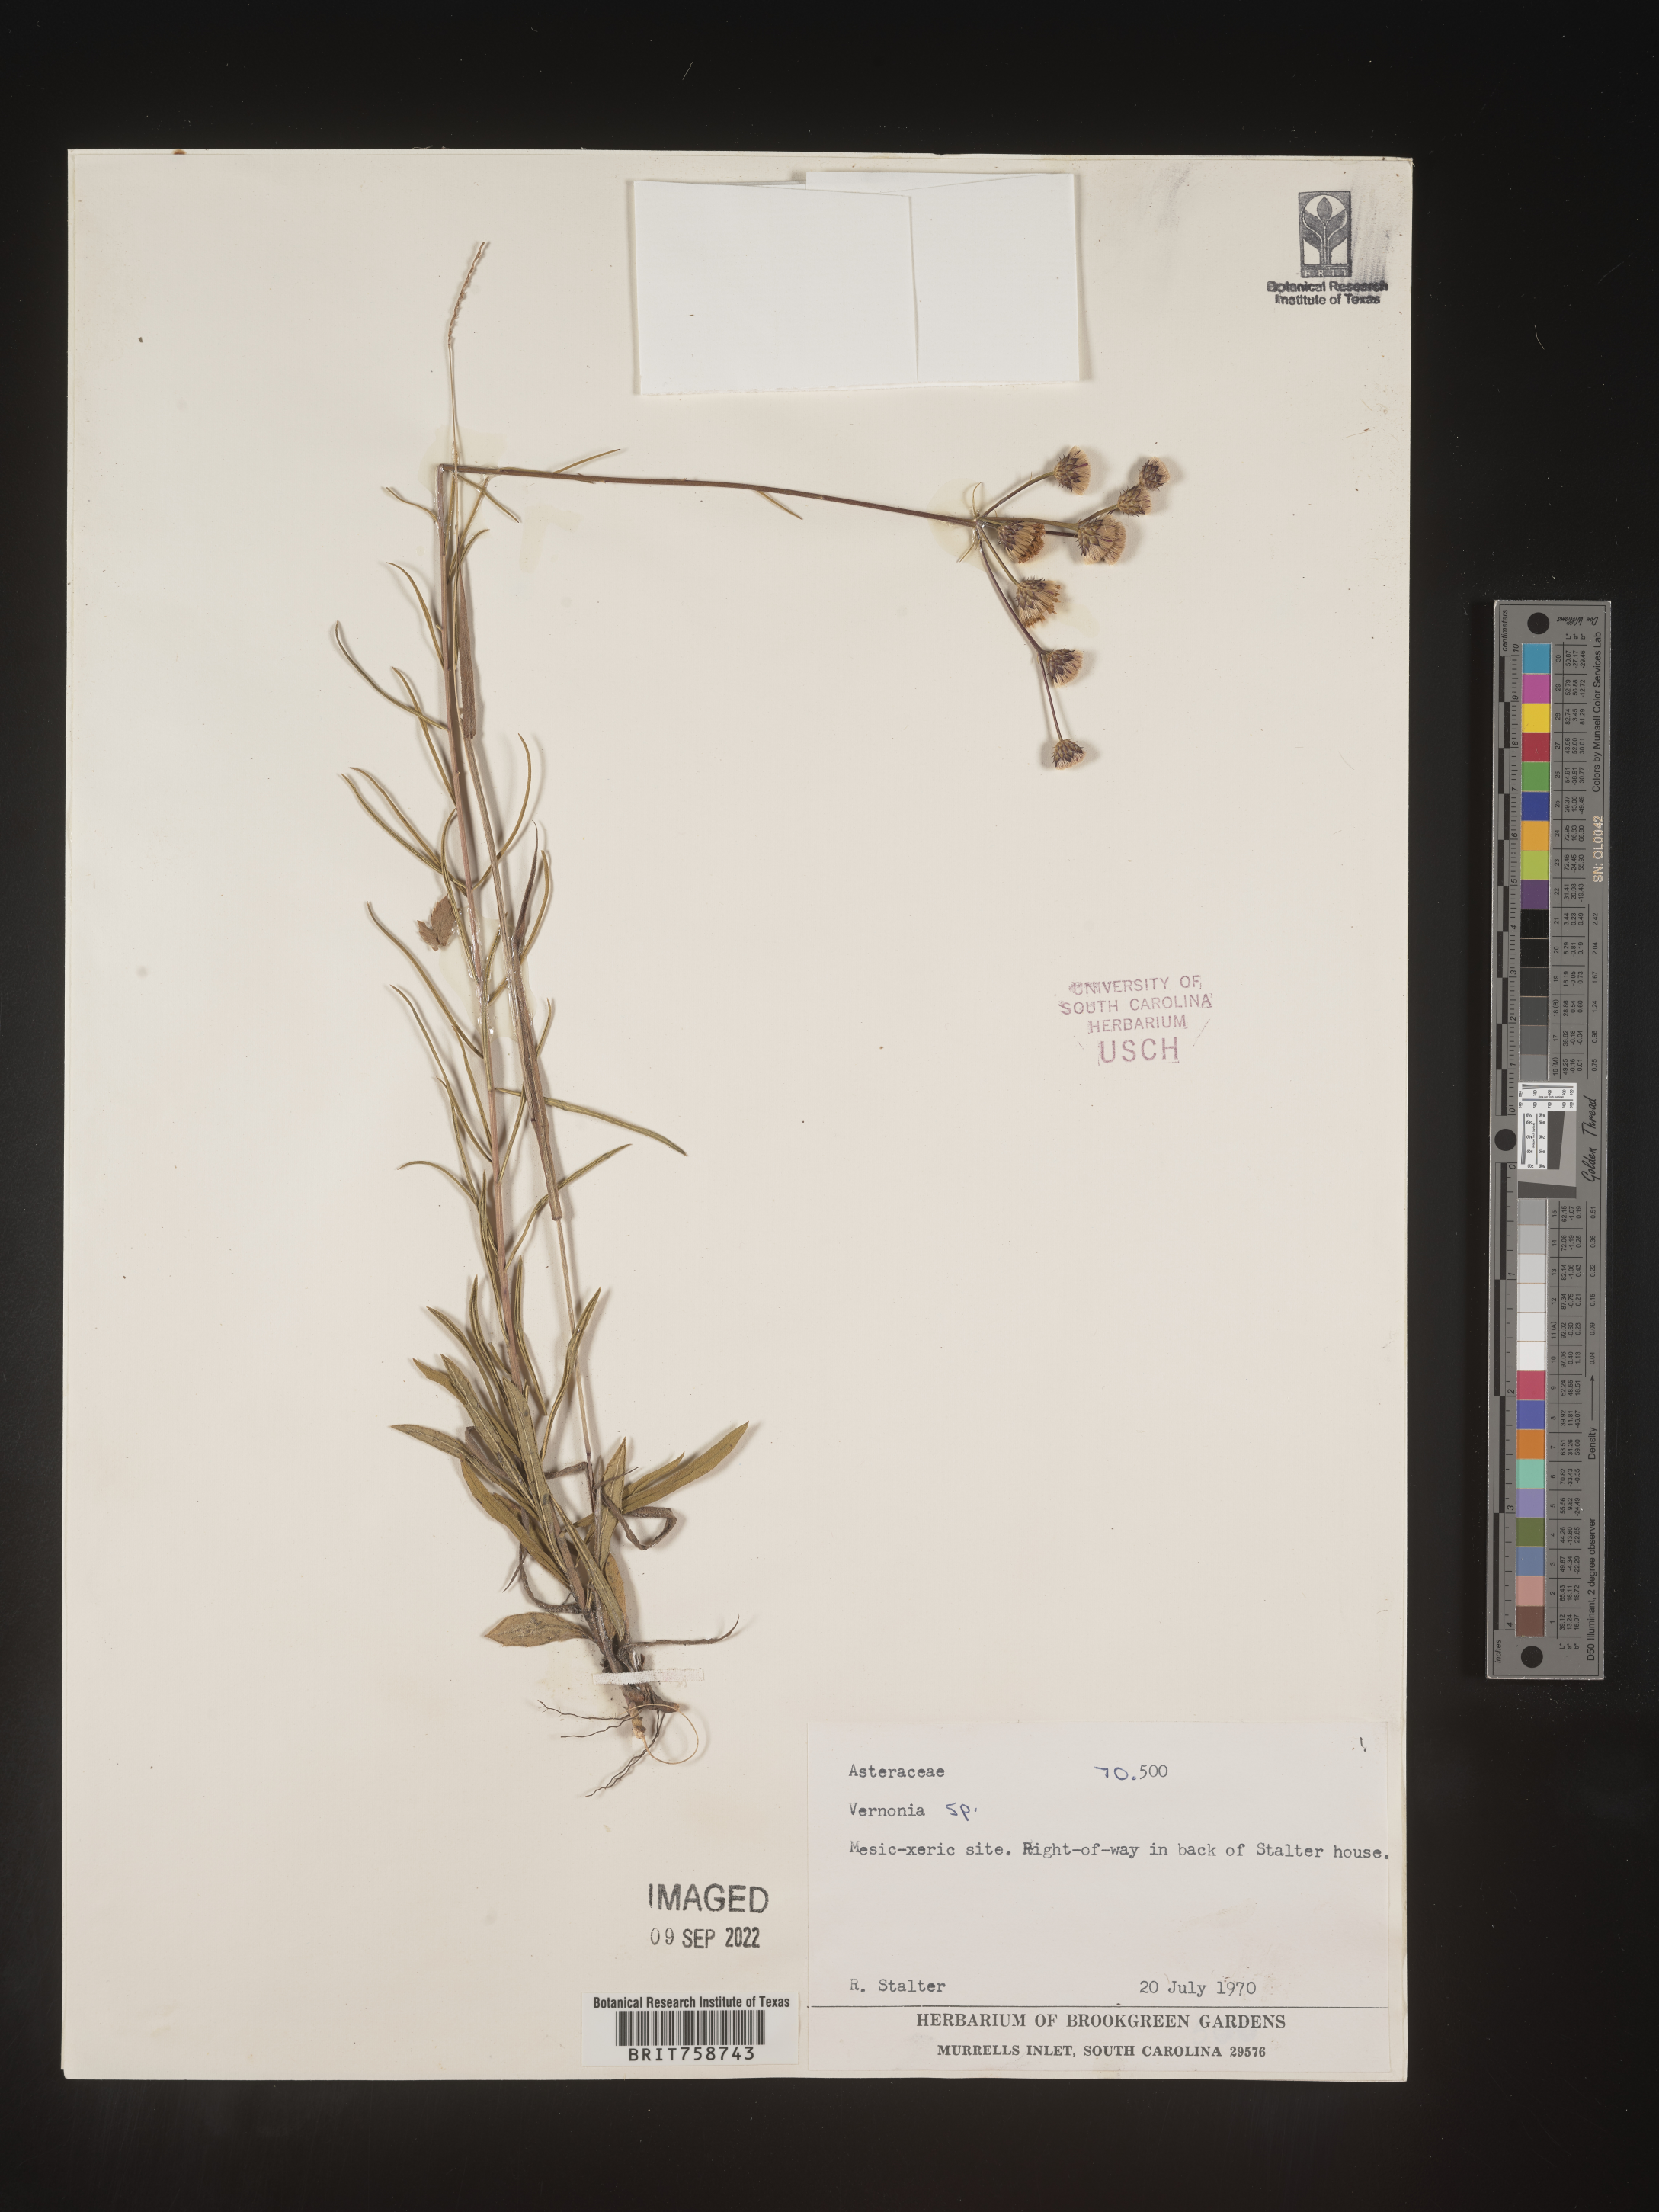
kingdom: Plantae
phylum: Tracheophyta
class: Magnoliopsida
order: Asterales
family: Asteraceae
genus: Vernonia
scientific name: Vernonia
